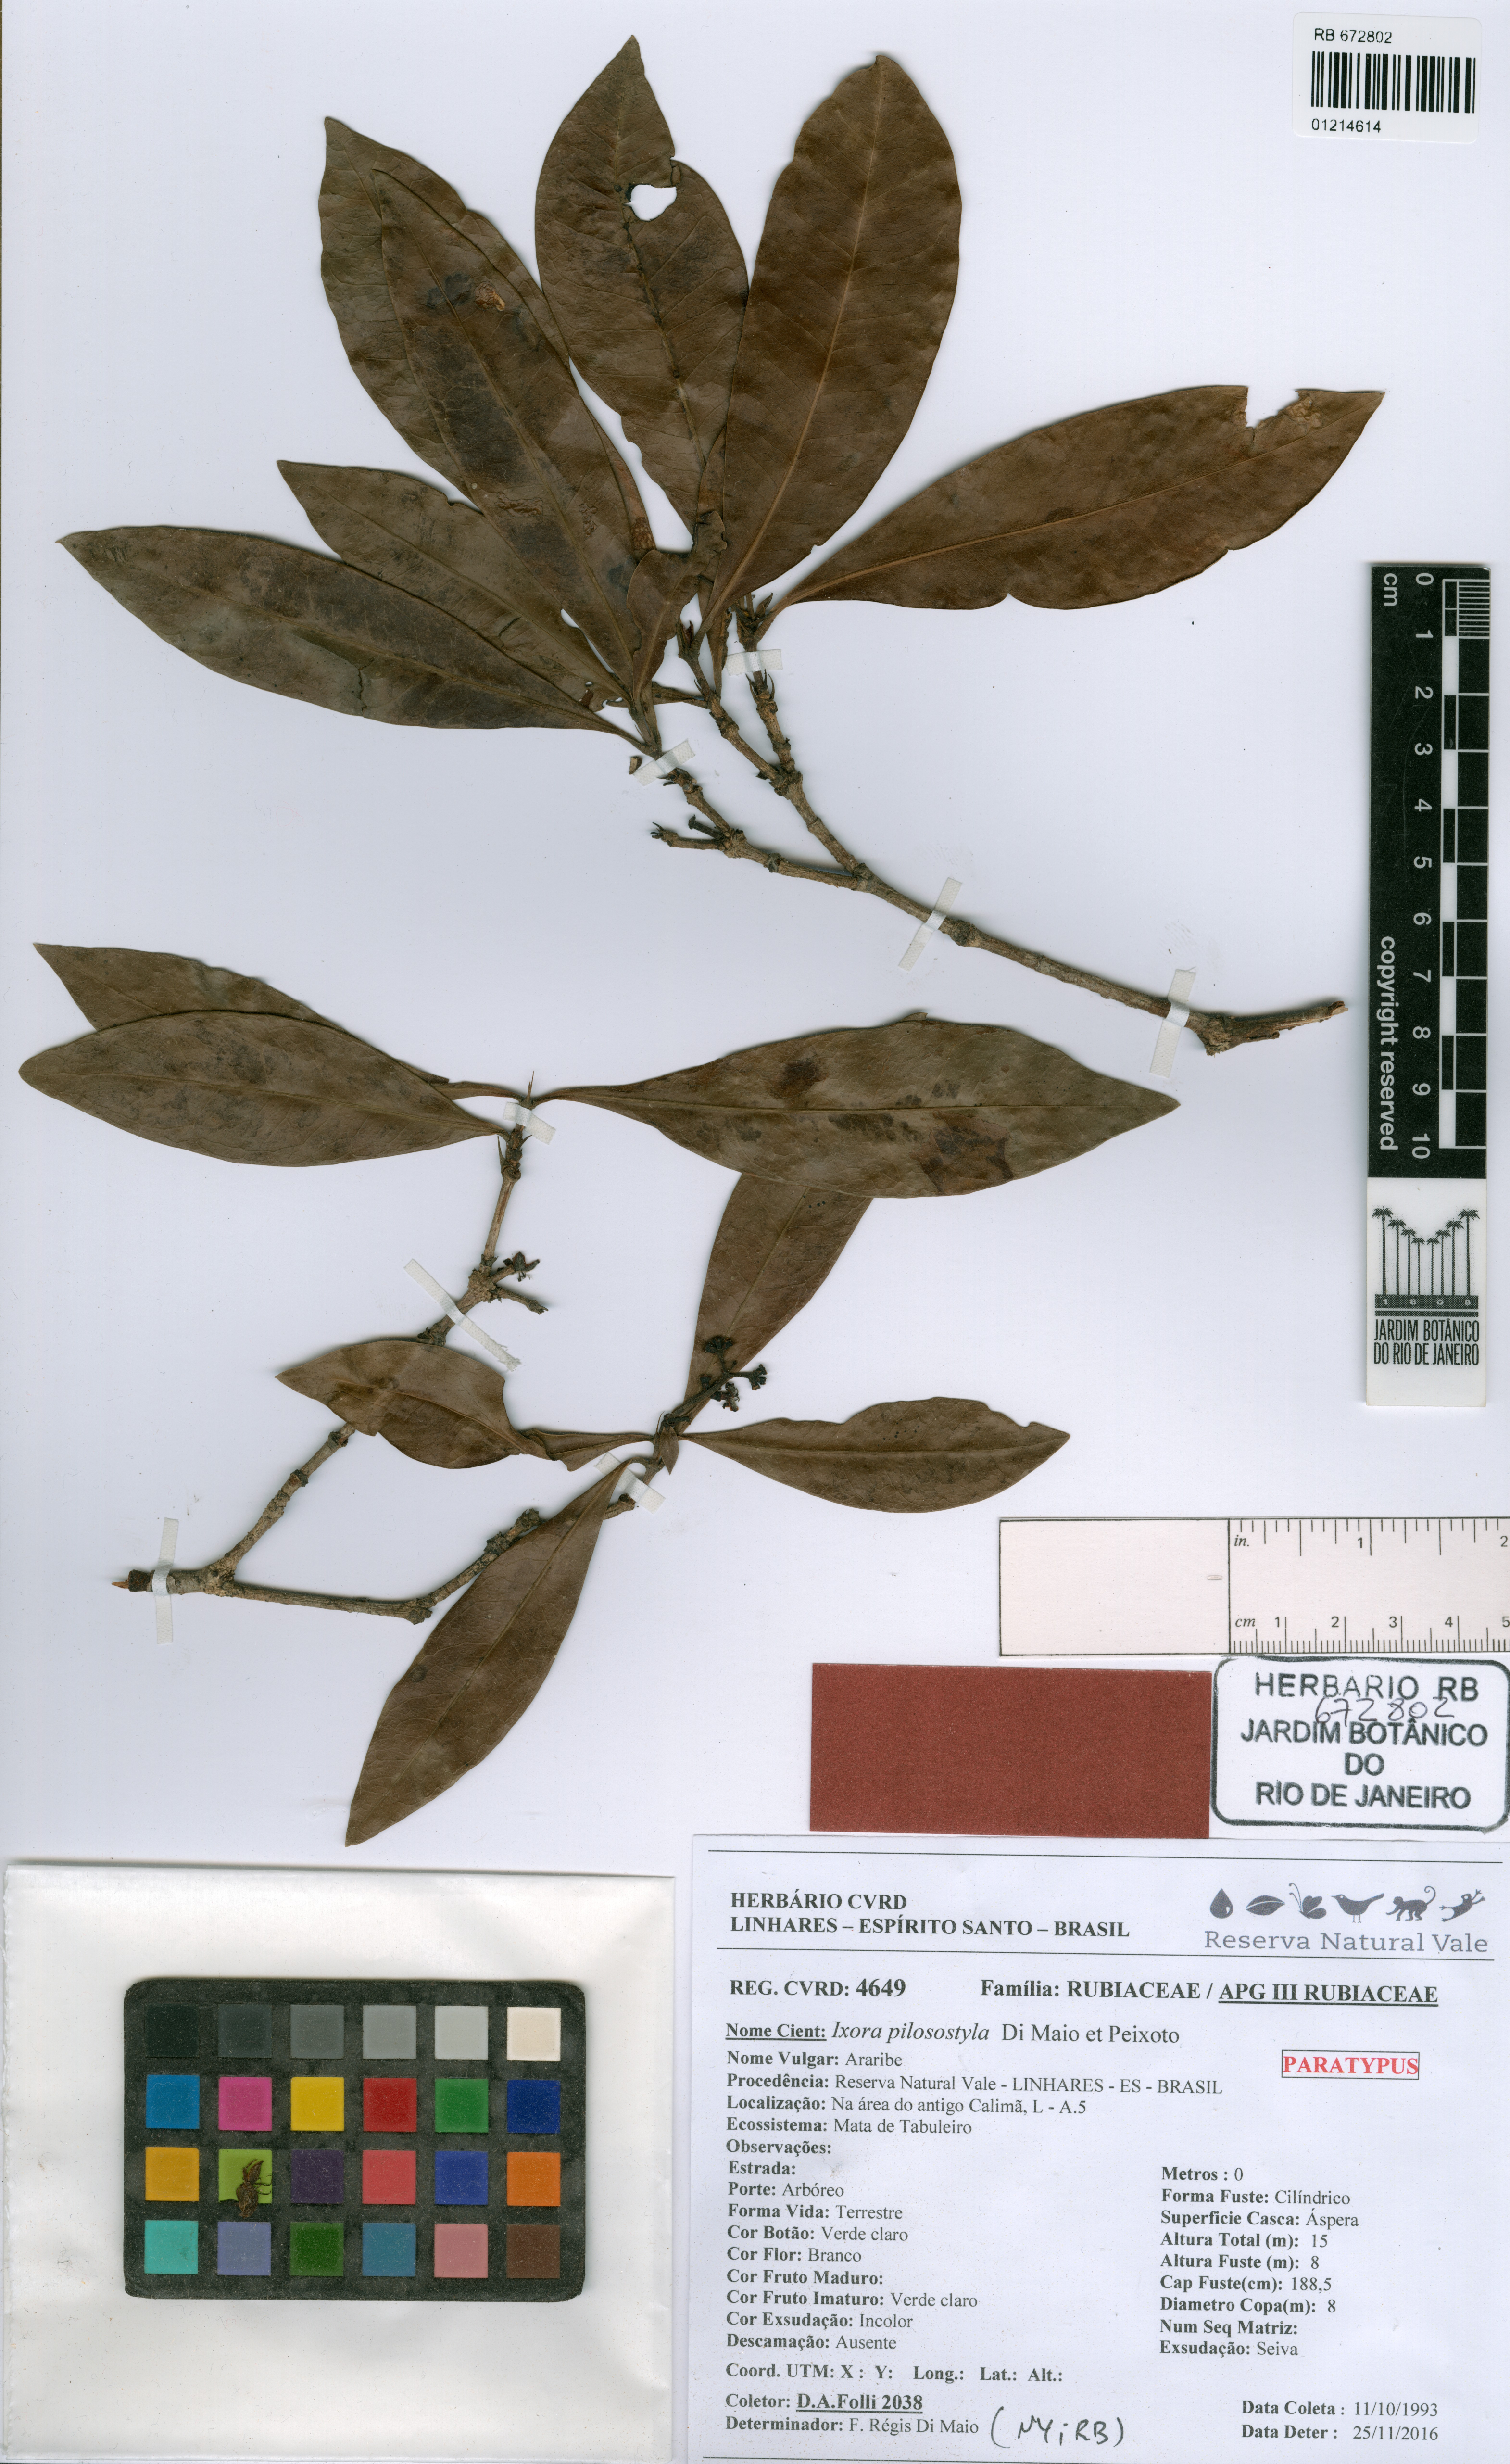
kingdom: Plantae
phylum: Tracheophyta
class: Magnoliopsida
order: Gentianales
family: Rubiaceae
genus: Ixora
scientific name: Ixora pilosostyla
